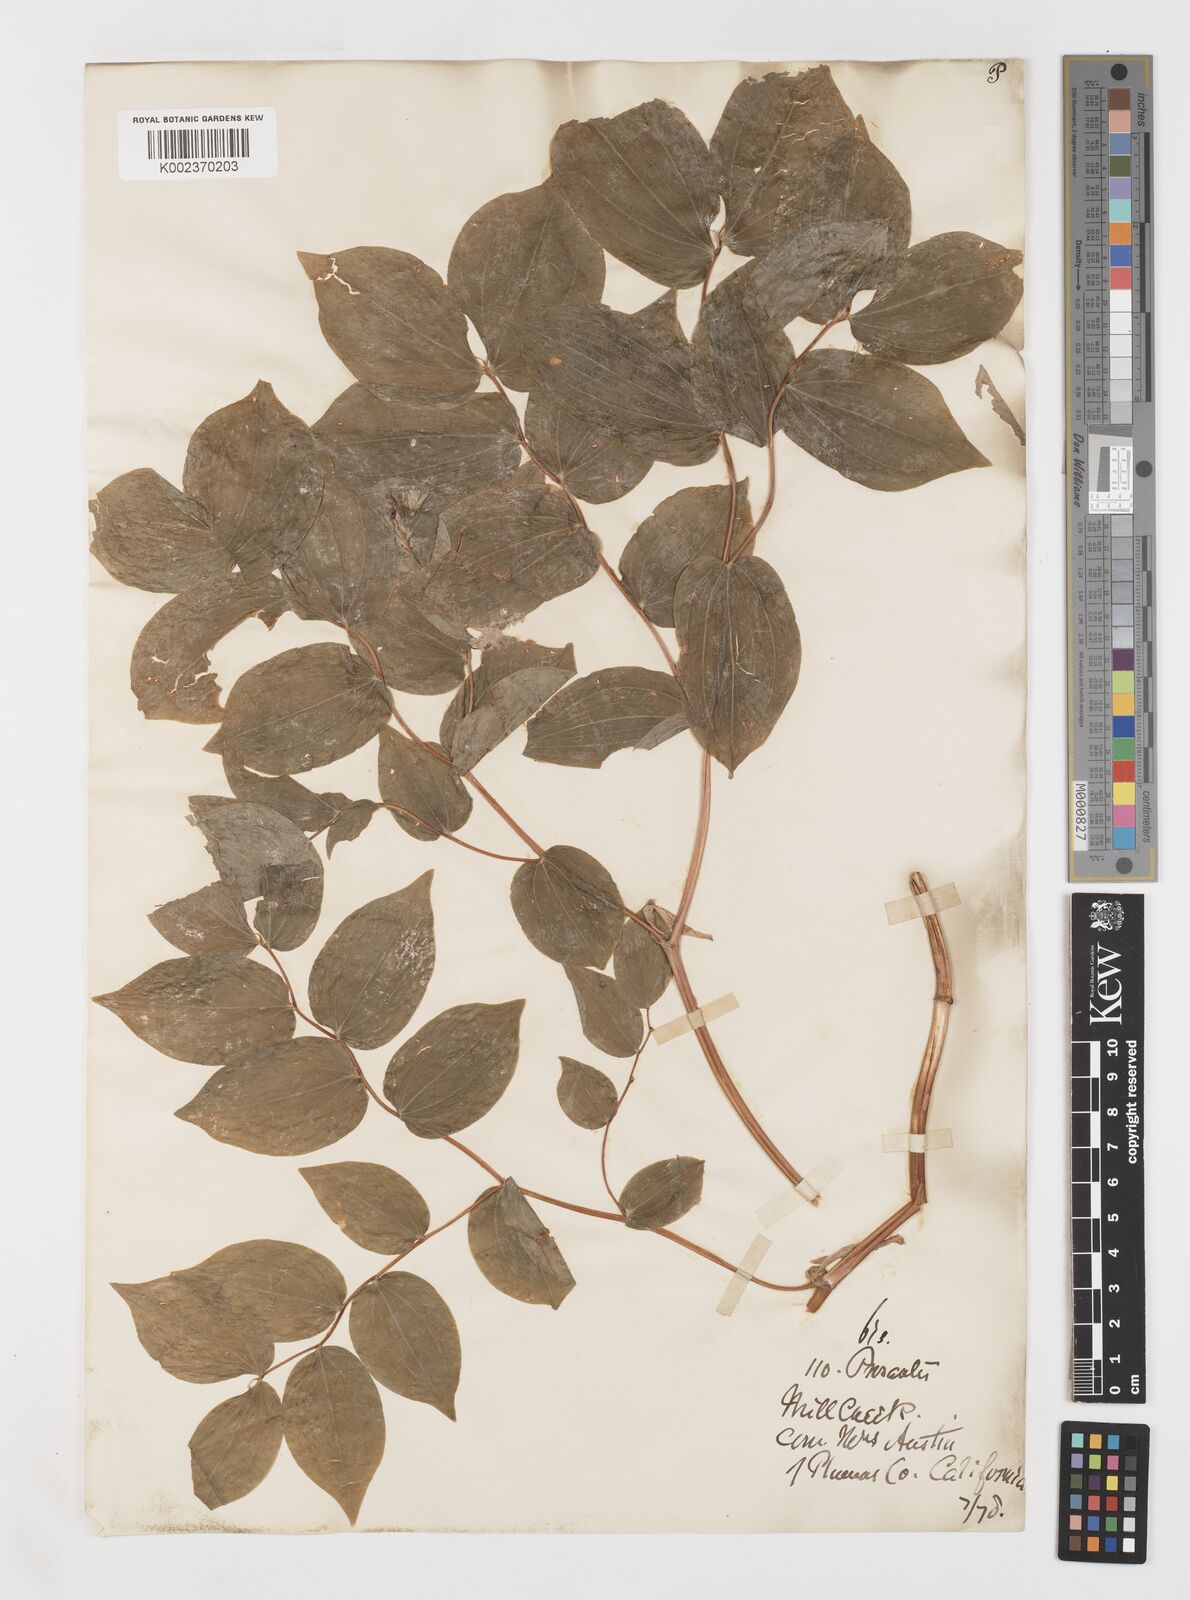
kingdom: Plantae
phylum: Tracheophyta
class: Liliopsida
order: Liliales
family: Liliaceae
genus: Prosartes
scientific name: Prosartes lanuginosa
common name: Hairy mandarin
